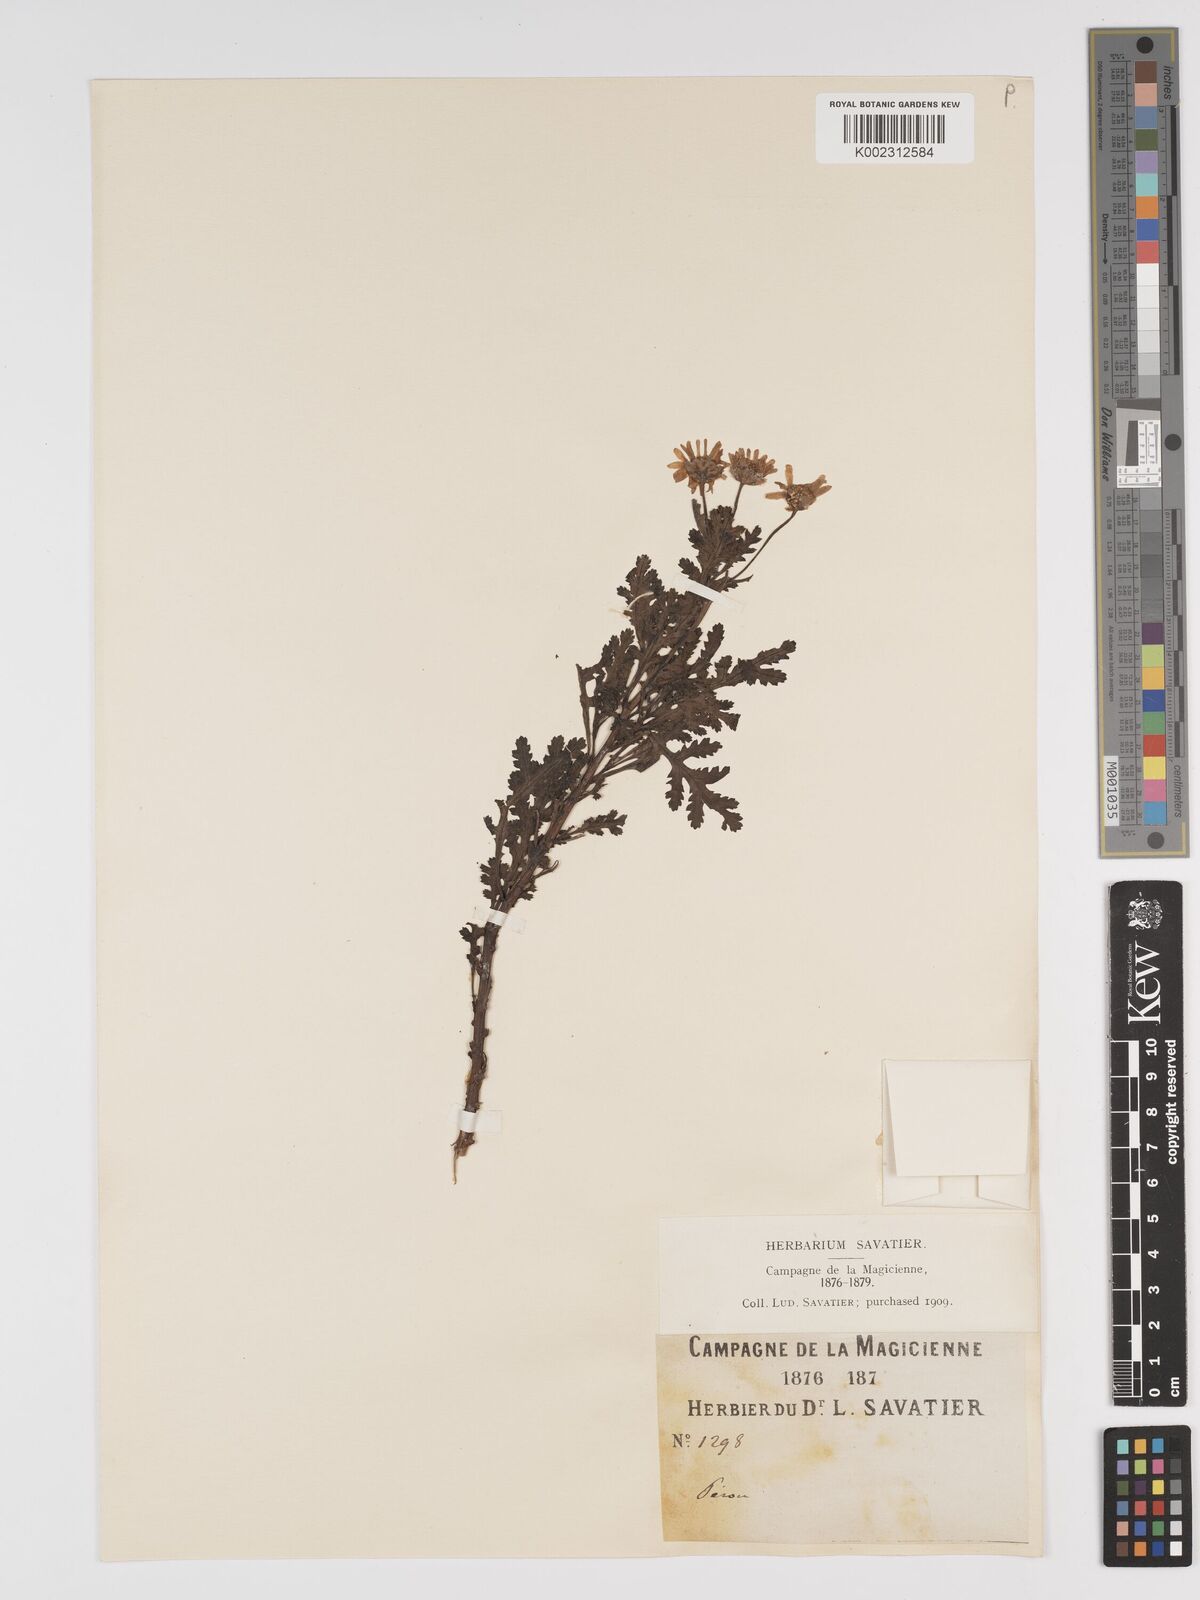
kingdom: Plantae
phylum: Tracheophyta
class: Magnoliopsida
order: Asterales
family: Asteraceae
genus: Tanacetum
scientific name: Tanacetum
